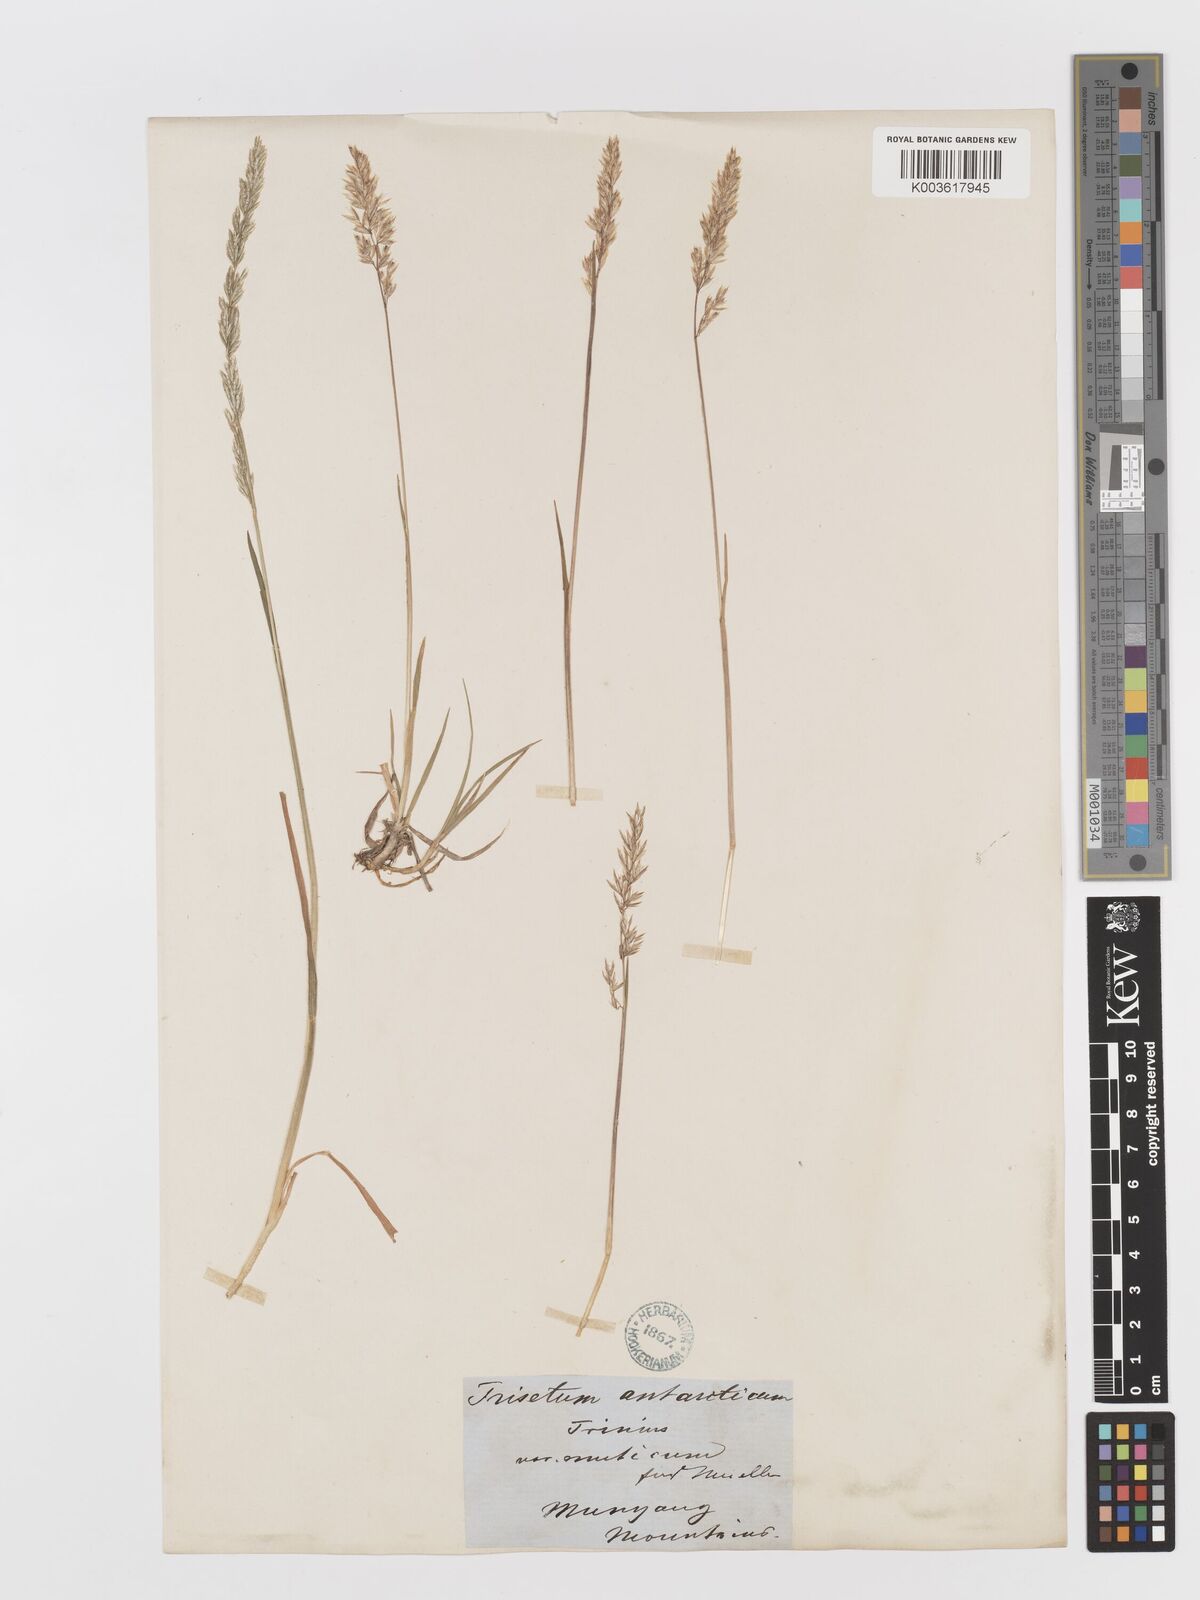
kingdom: Plantae
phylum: Tracheophyta
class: Liliopsida
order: Poales
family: Poaceae
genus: Koeleria
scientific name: Koeleria macrantha
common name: Crested hair-grass
